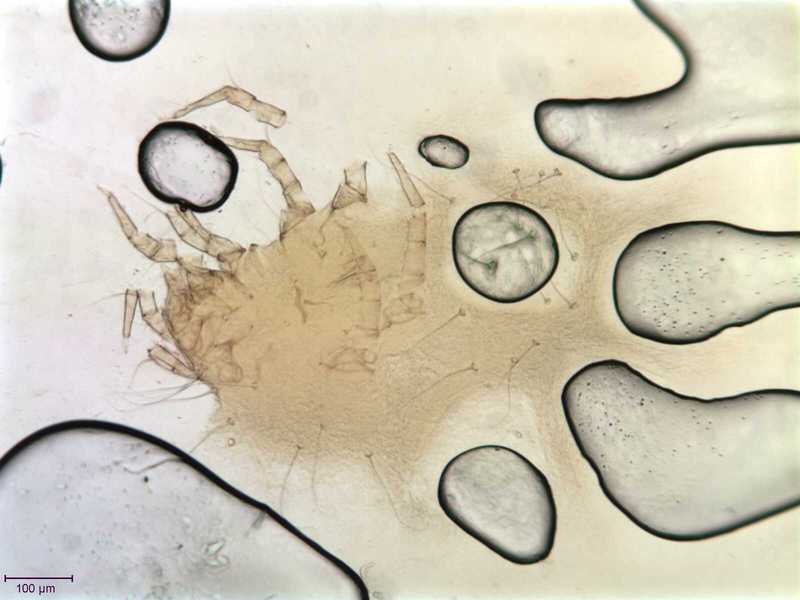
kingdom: Animalia
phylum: Arthropoda
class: Arachnida
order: Sarcoptiformes
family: Winterschmidtiidae
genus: Ensliniella
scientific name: Ensliniella parasitica
